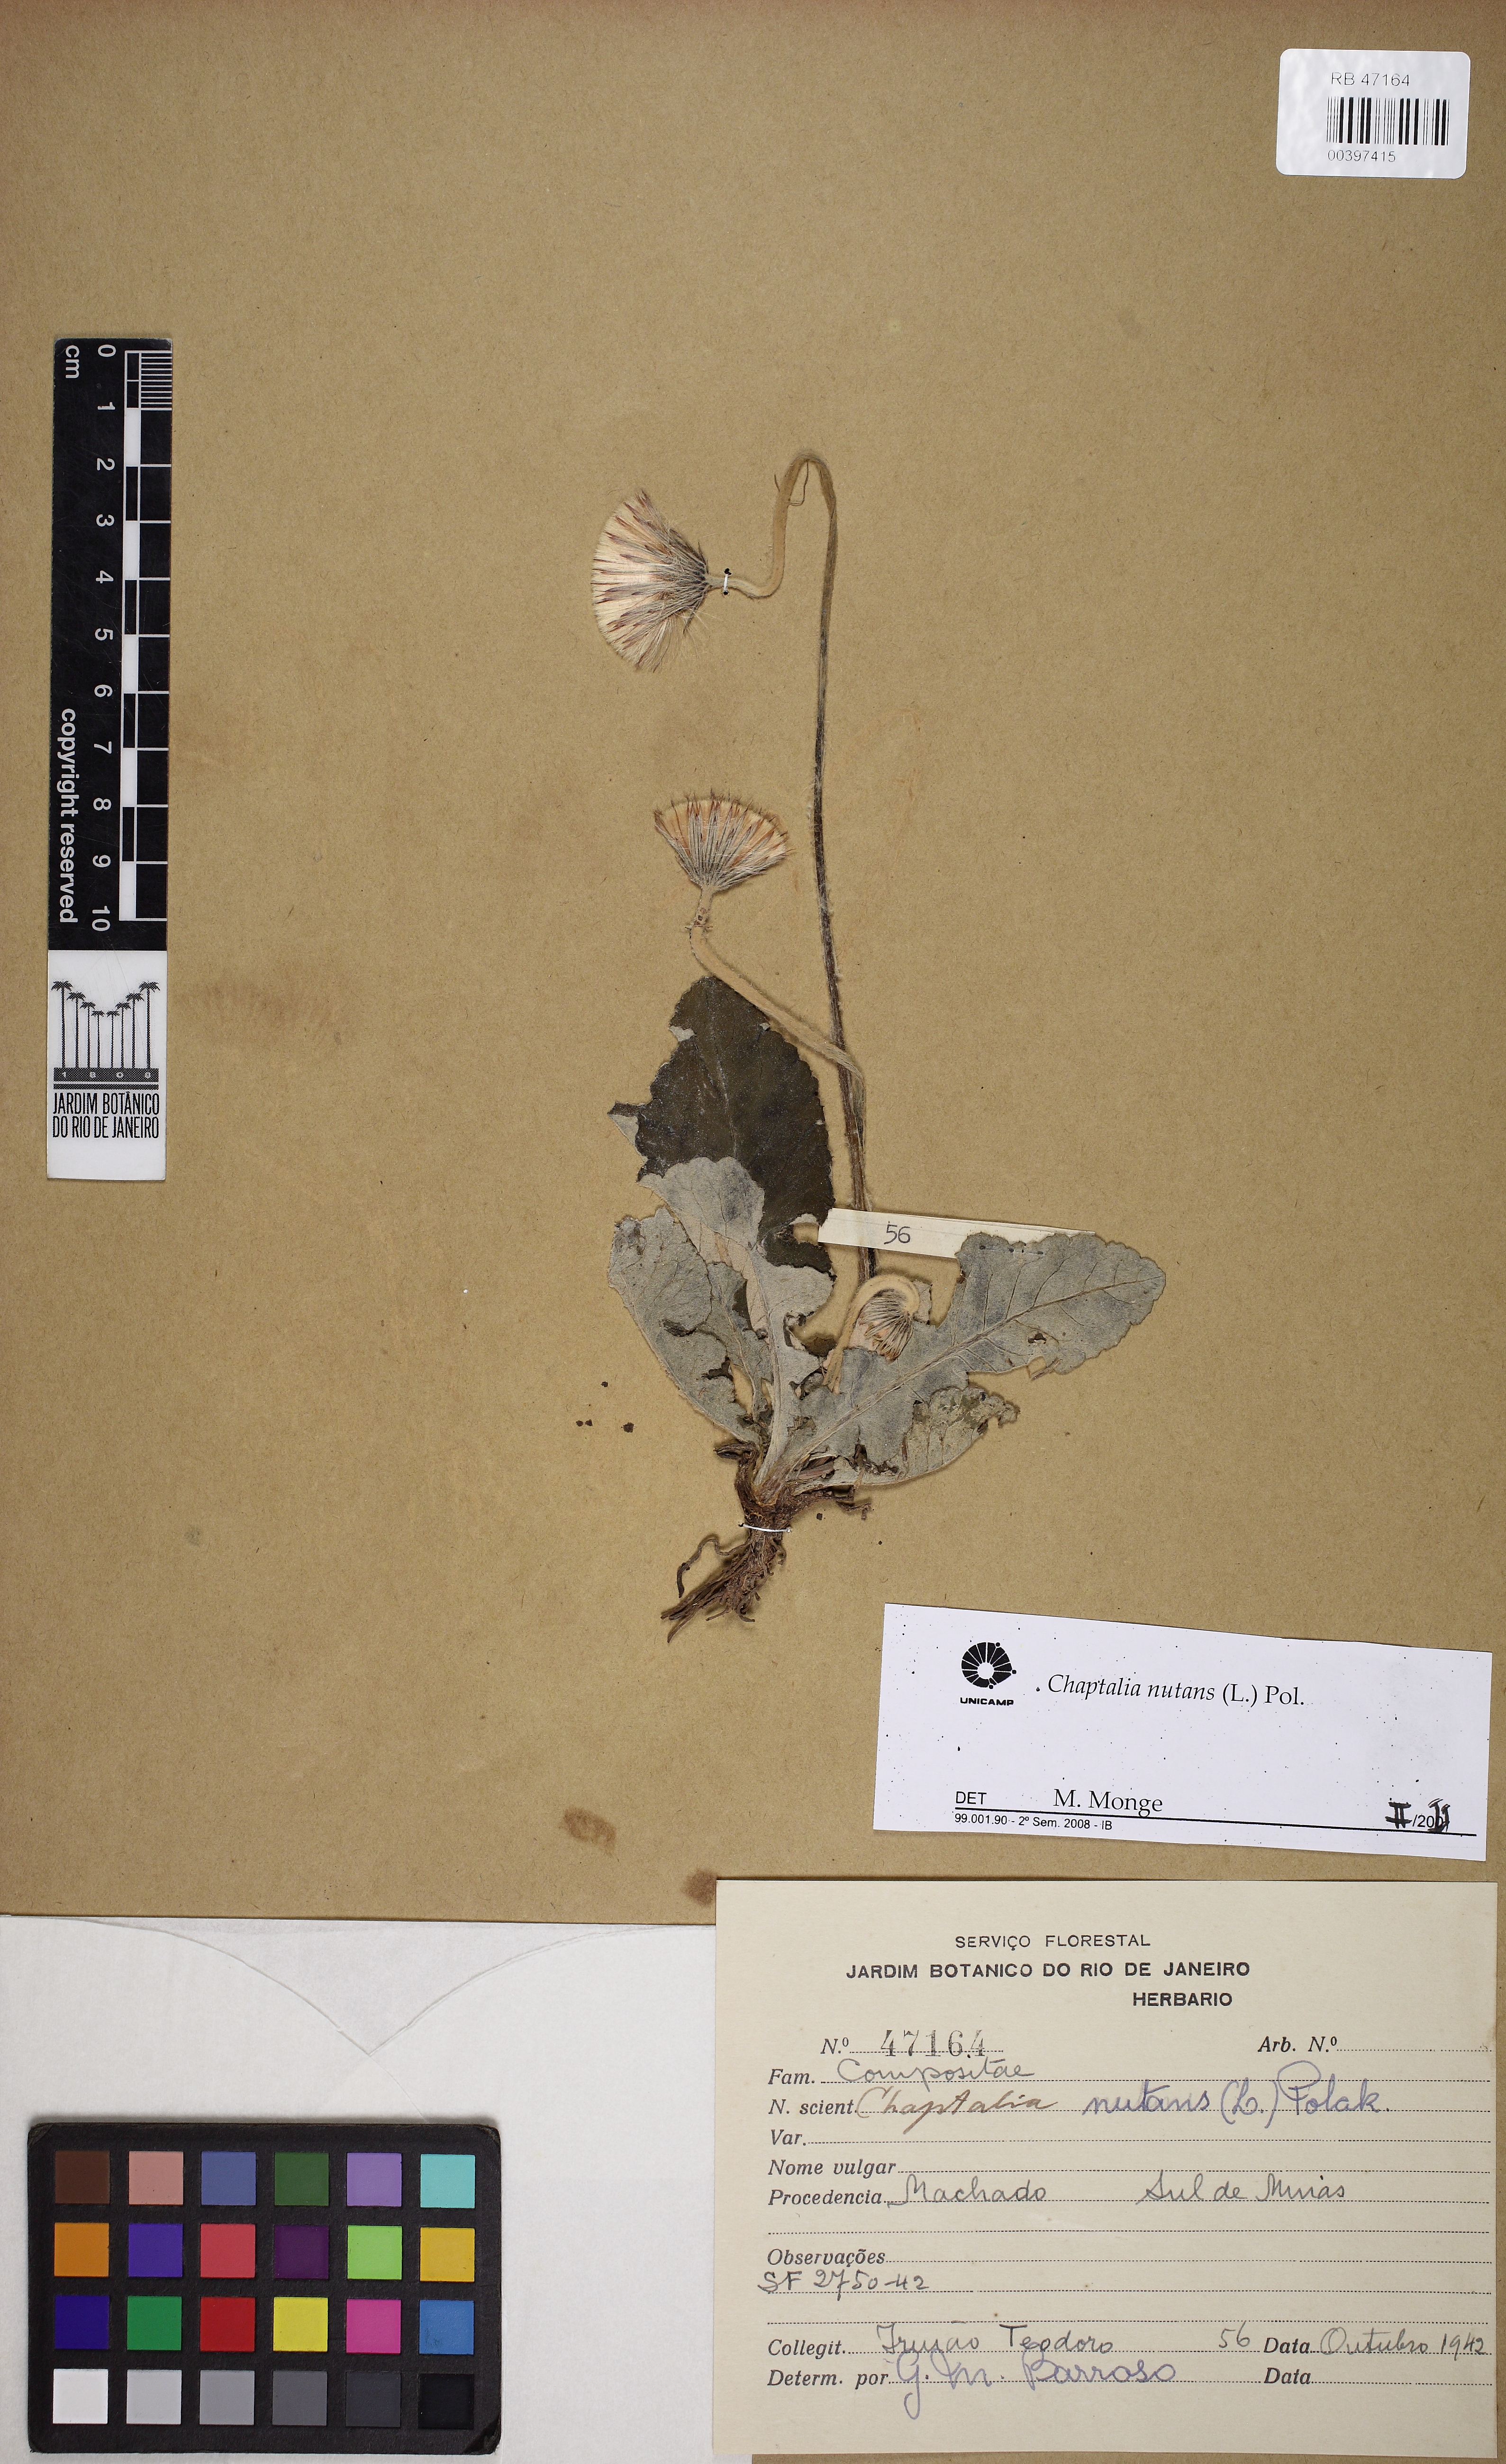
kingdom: Plantae
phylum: Tracheophyta
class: Magnoliopsida
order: Asterales
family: Asteraceae
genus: Chaptalia
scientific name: Chaptalia nutans
